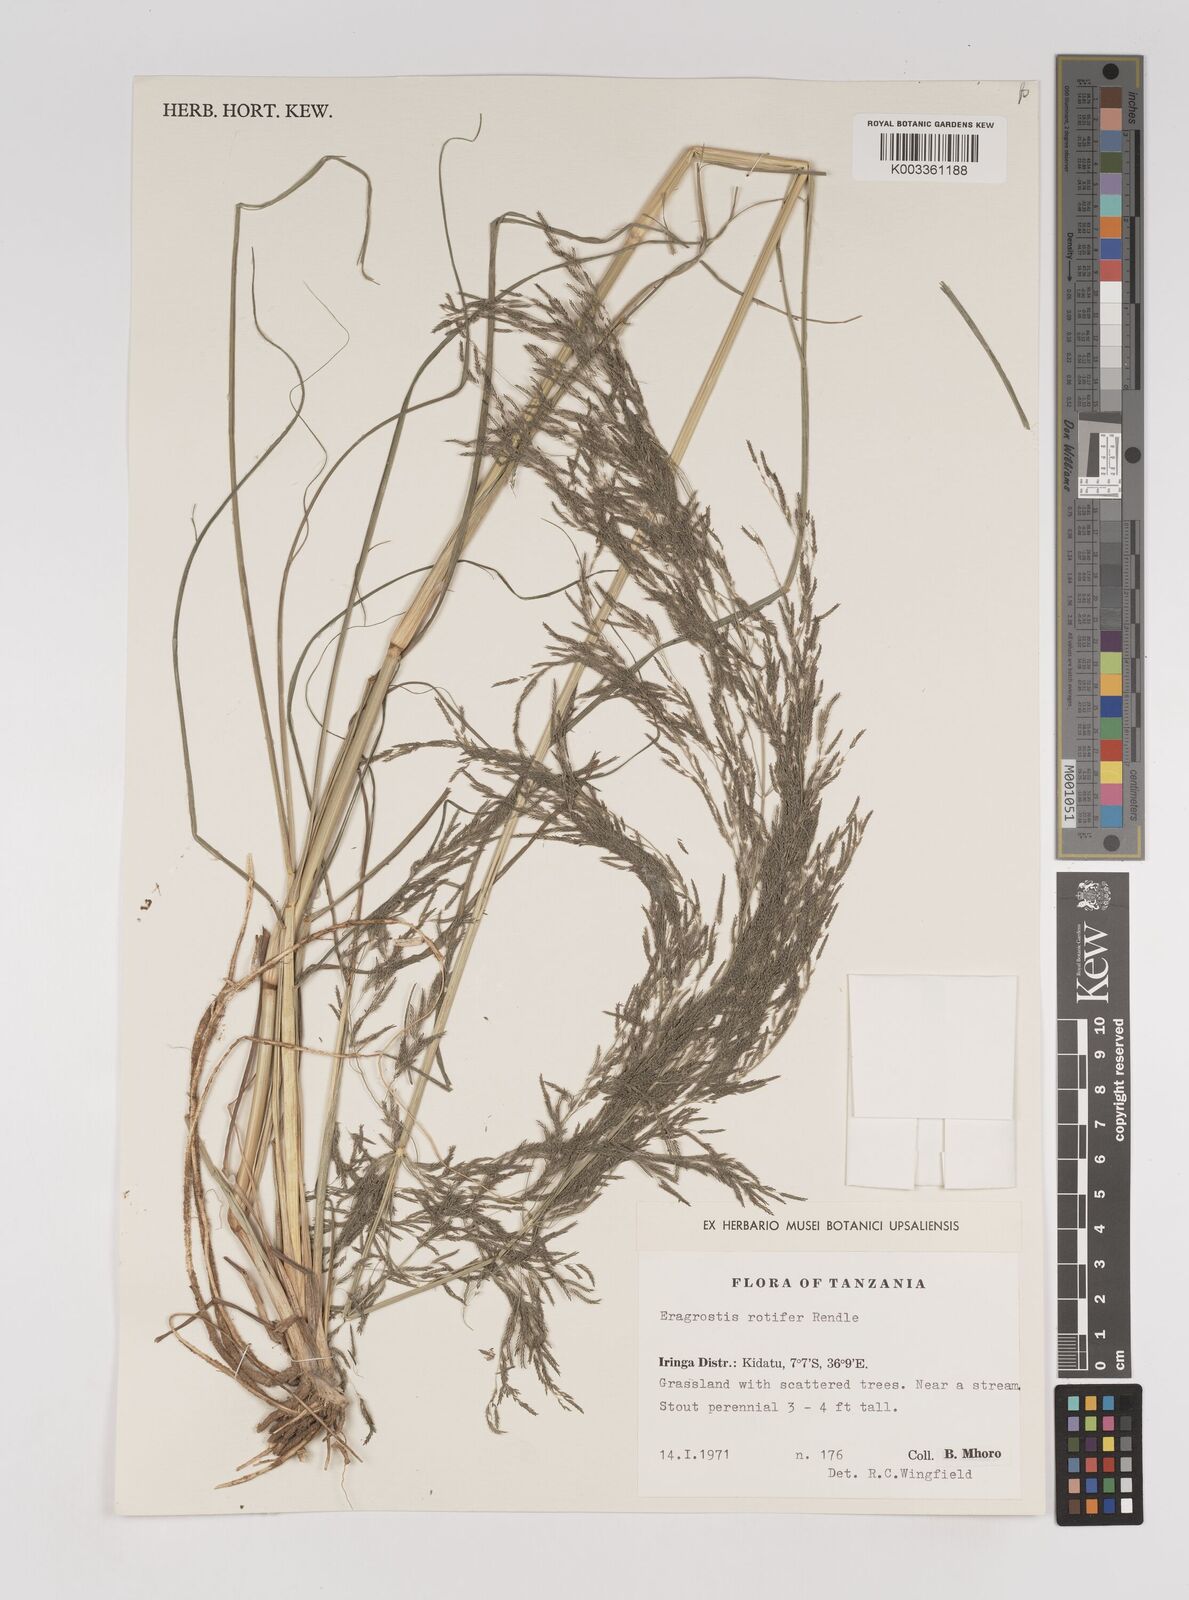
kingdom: Plantae
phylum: Tracheophyta
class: Liliopsida
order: Poales
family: Poaceae
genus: Eragrostis
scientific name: Eragrostis rotifer
